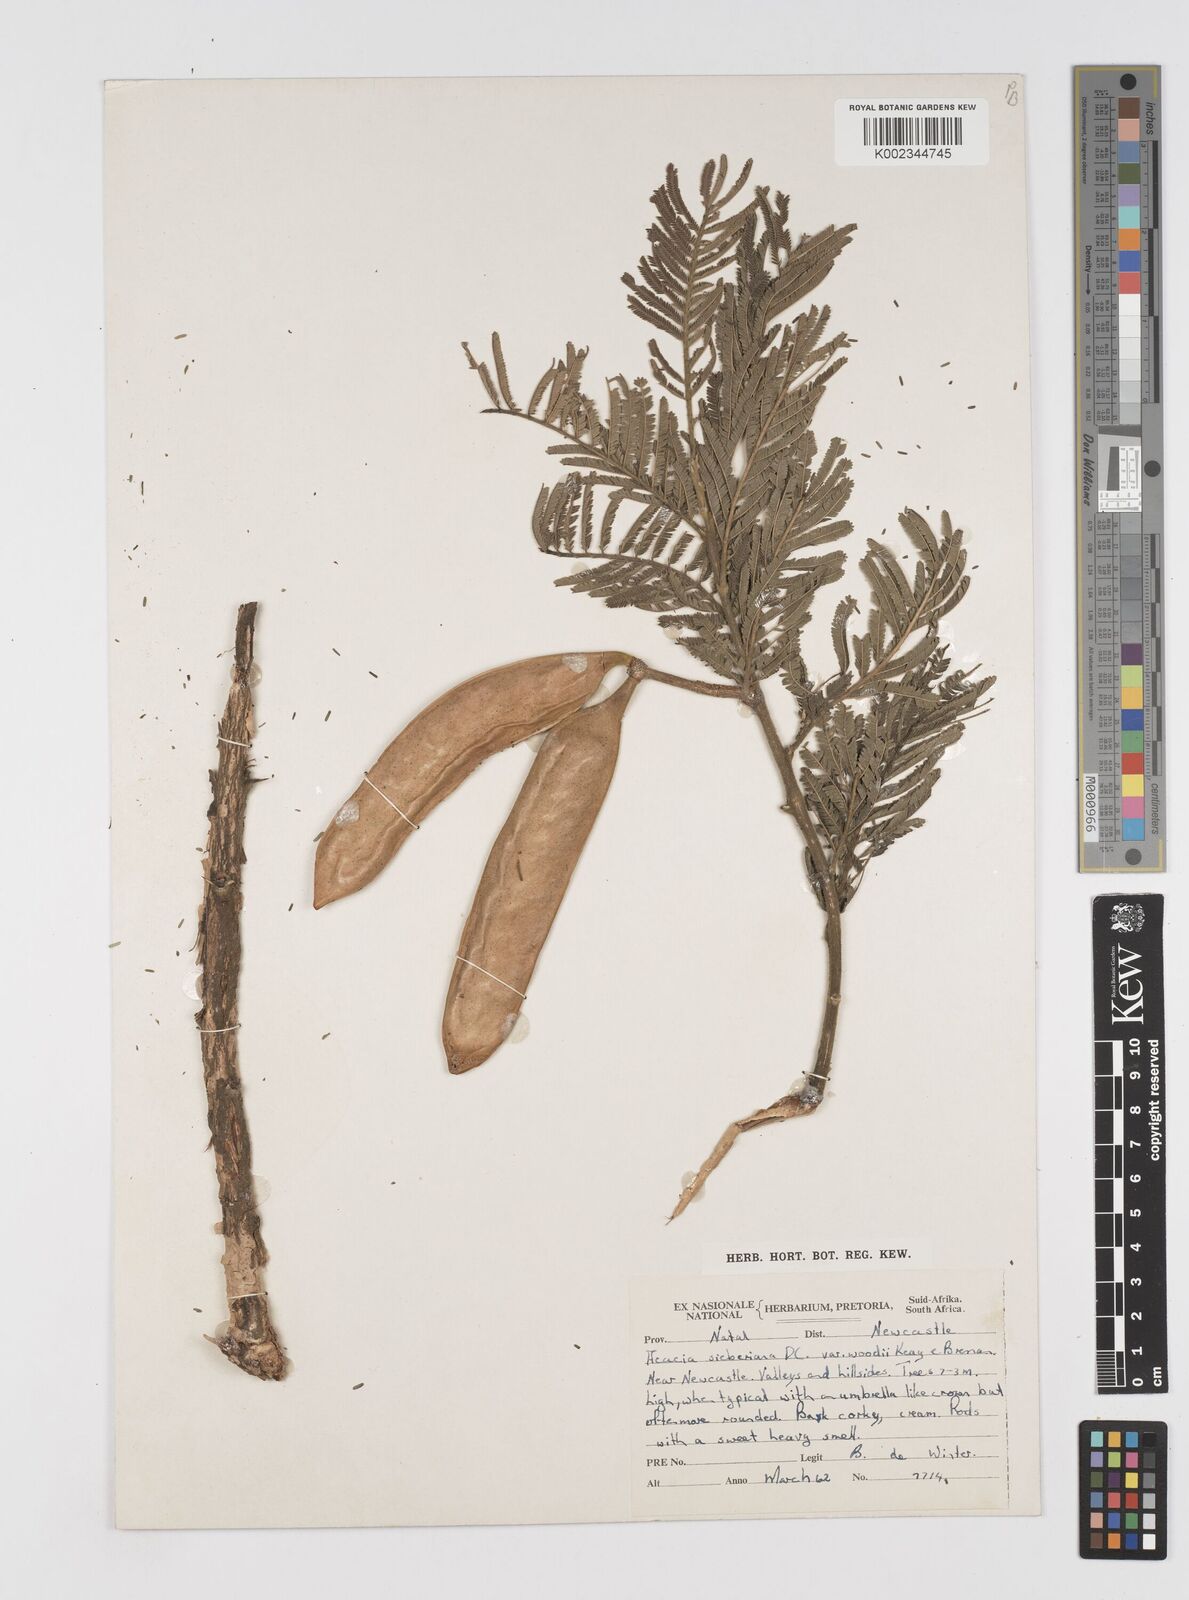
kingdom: Plantae
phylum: Tracheophyta
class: Magnoliopsida
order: Fabales
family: Fabaceae
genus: Acacia
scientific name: Acacia hamiltoniana
